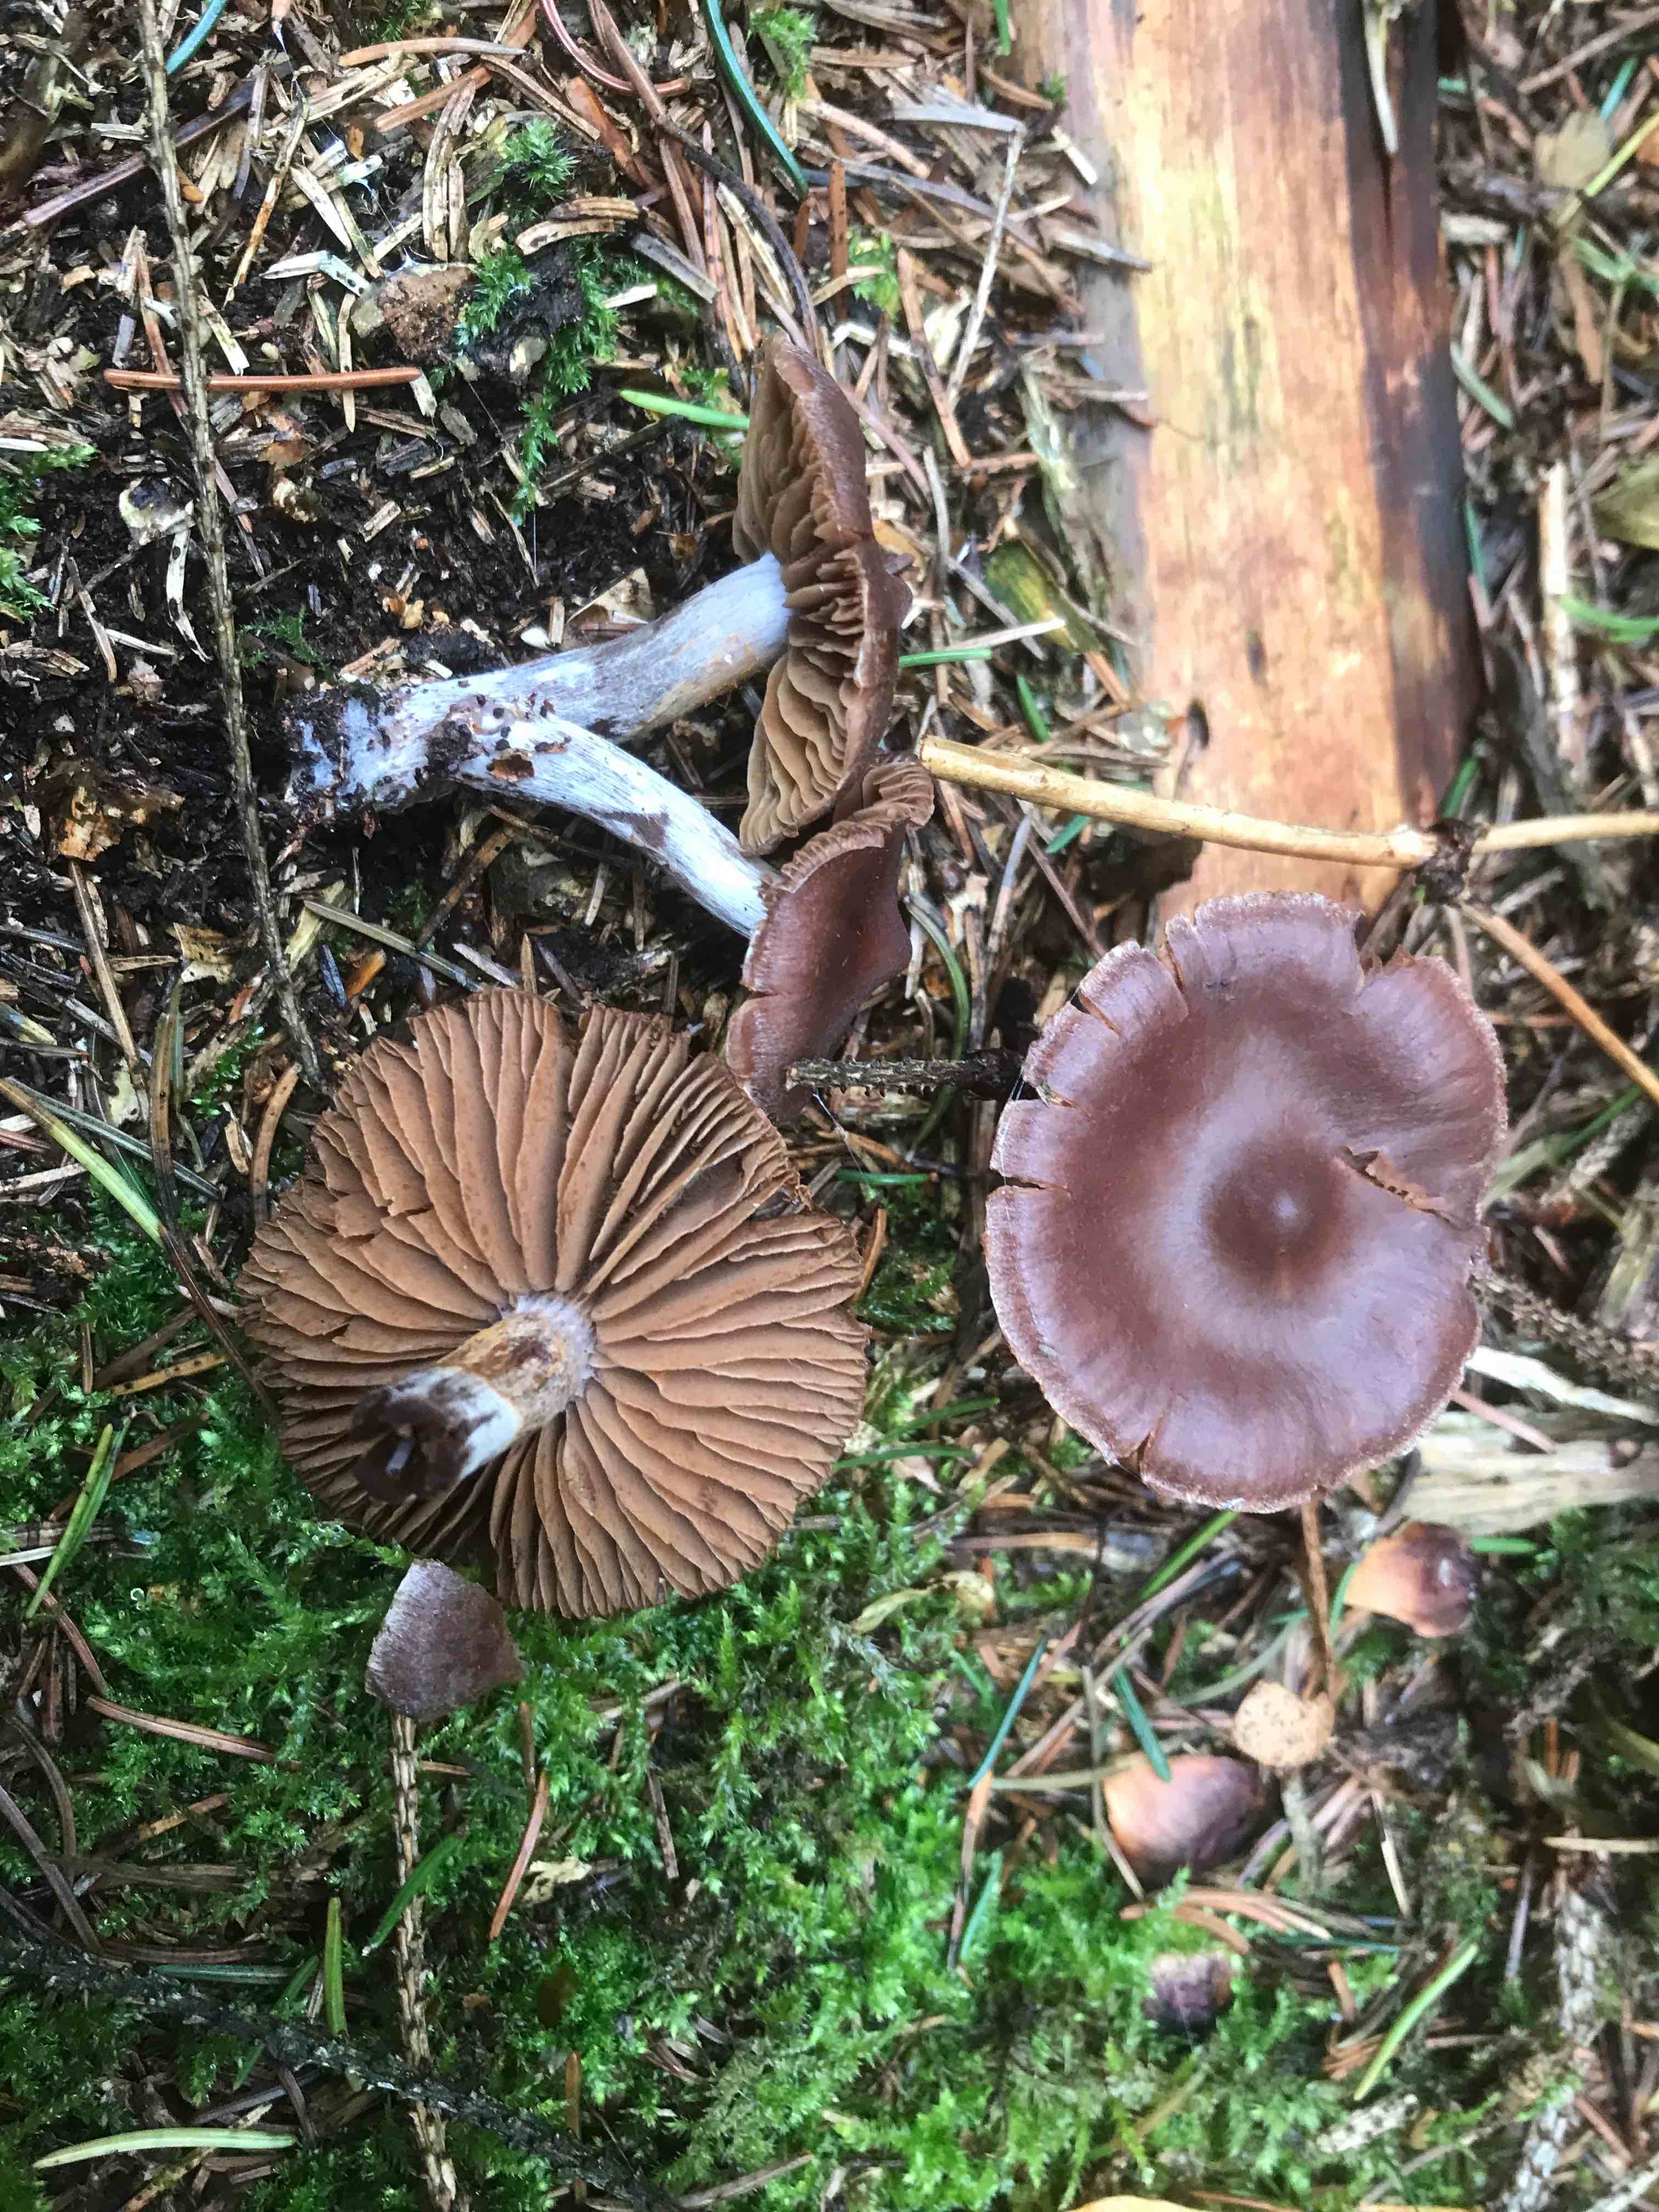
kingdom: Fungi
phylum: Basidiomycota
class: Agaricomycetes
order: Agaricales
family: Cortinariaceae
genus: Cortinarius
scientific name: Cortinarius
